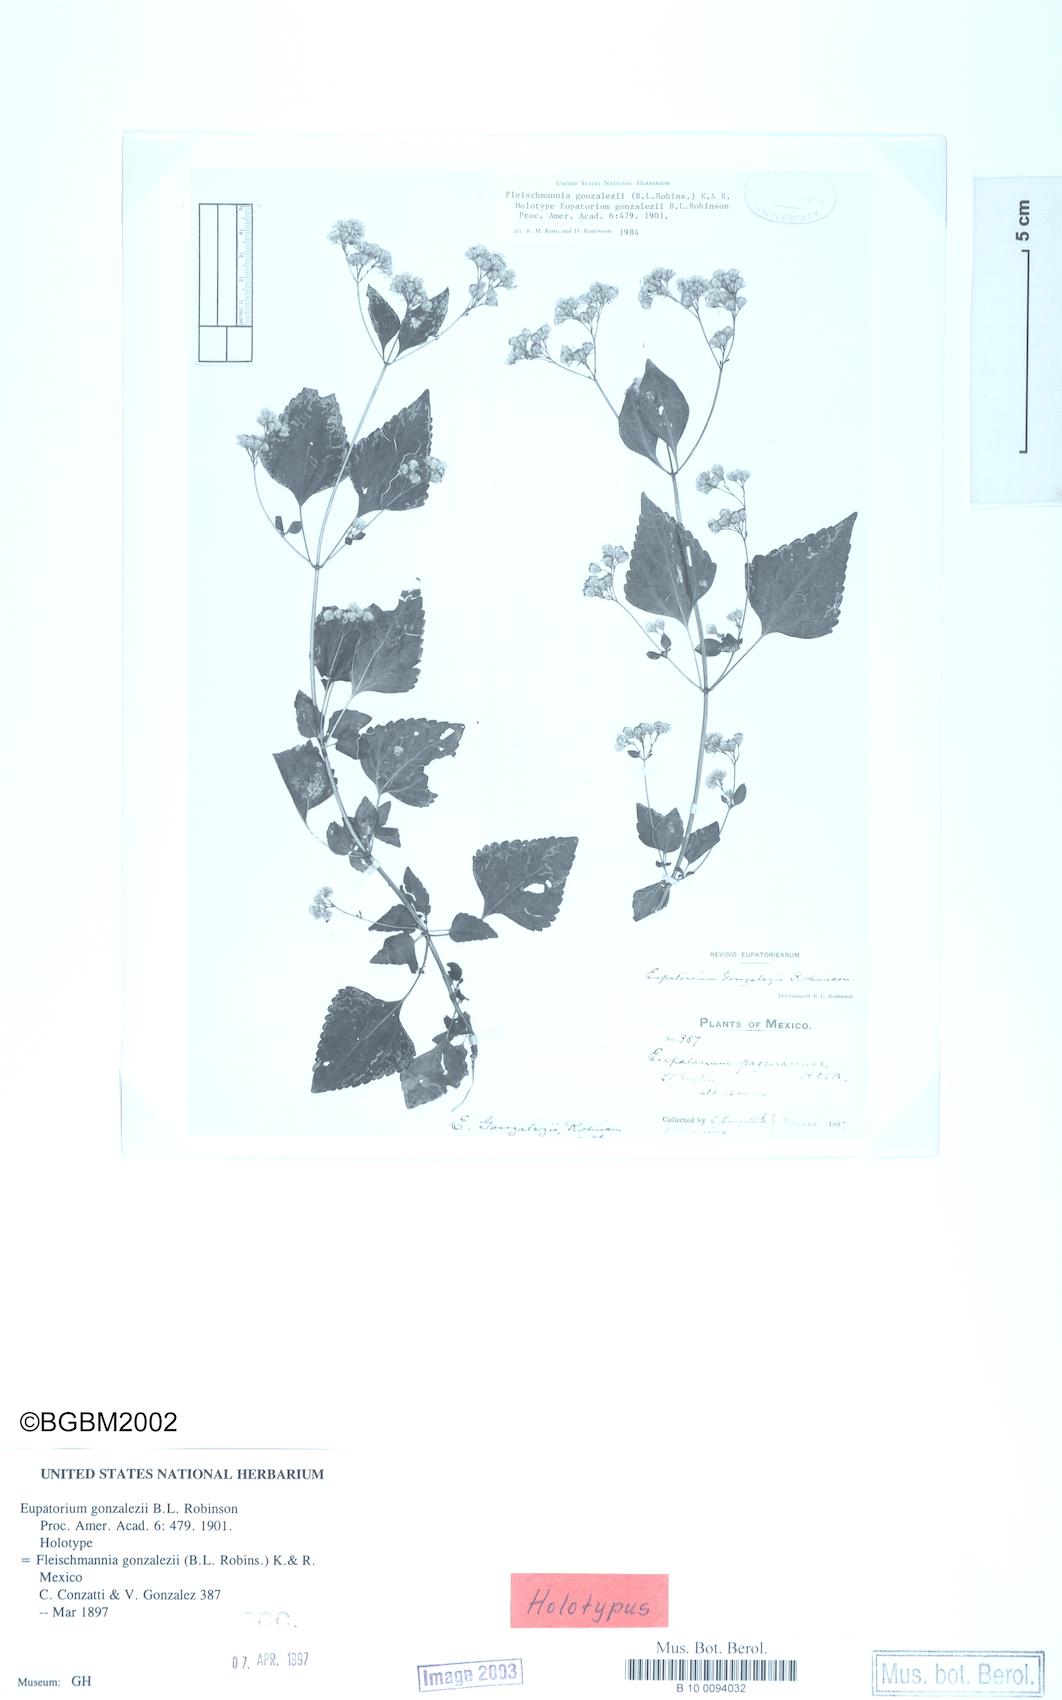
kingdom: Plantae
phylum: Tracheophyta
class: Magnoliopsida
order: Asterales
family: Asteraceae
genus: Fleischmannia
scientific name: Fleischmannia gonzalezii
